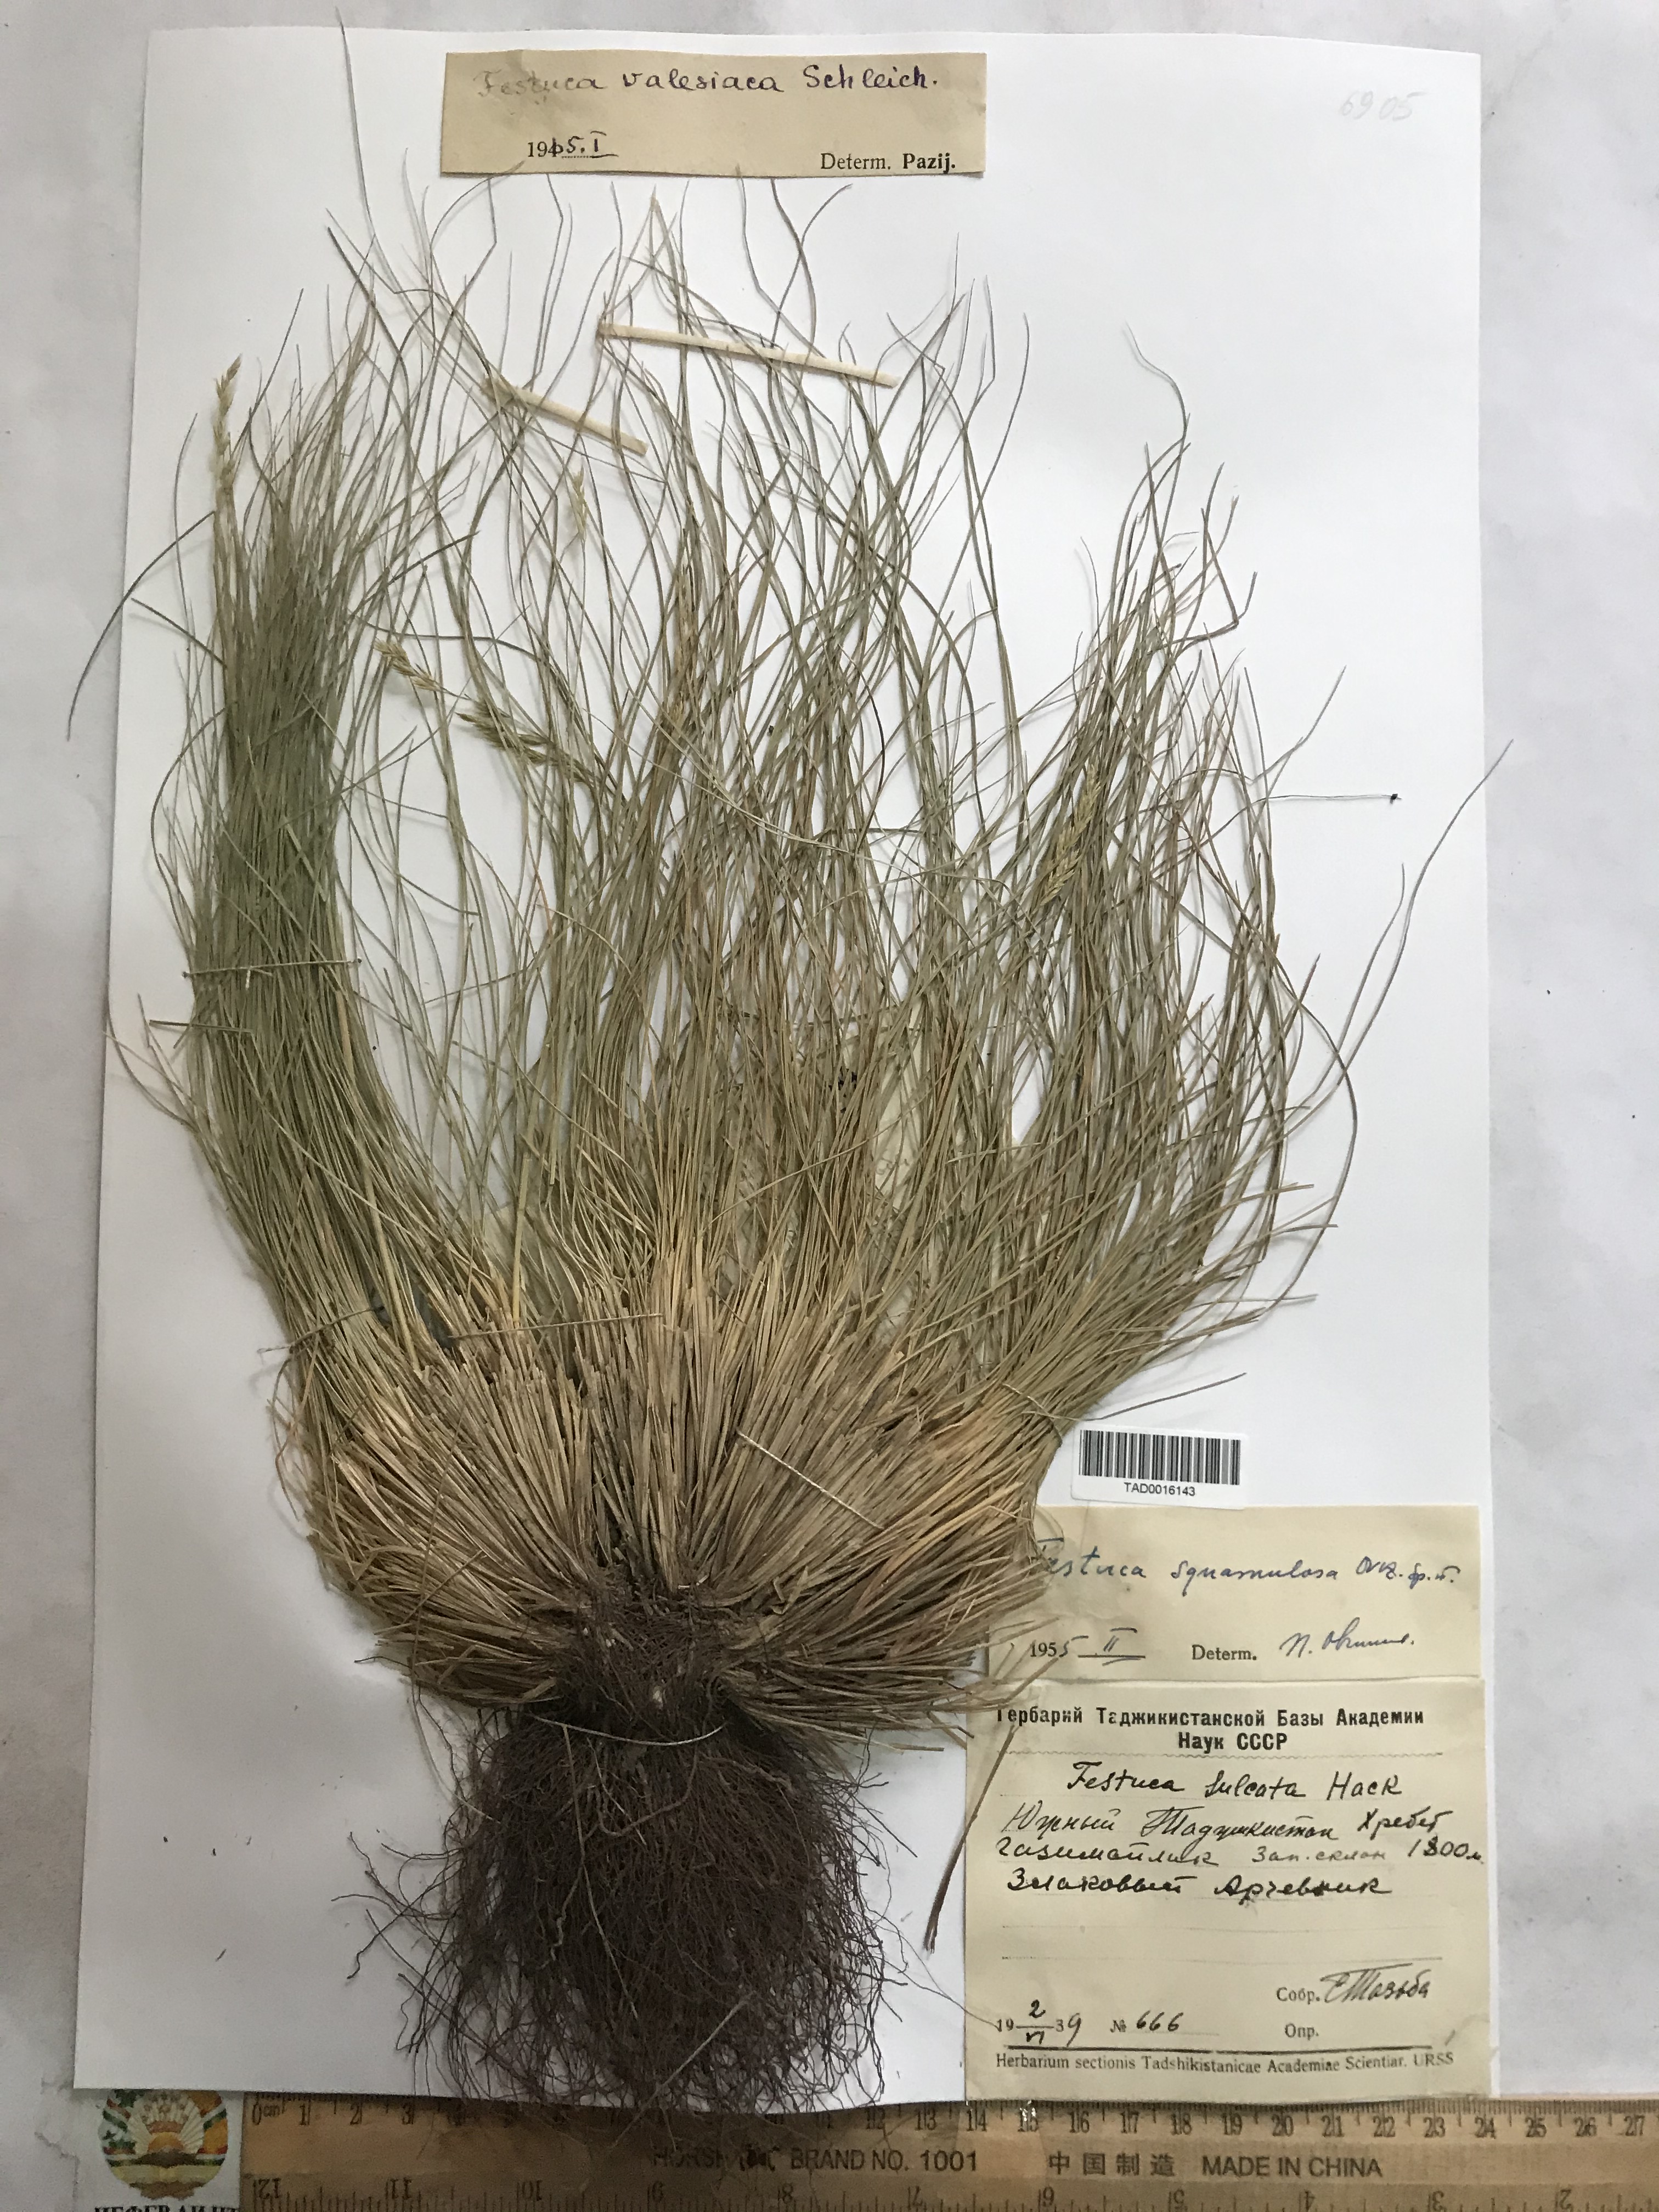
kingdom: Plantae
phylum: Tracheophyta
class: Liliopsida
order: Poales
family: Poaceae
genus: Festuca
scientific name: Festuca valesiaca
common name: Volga fescue
